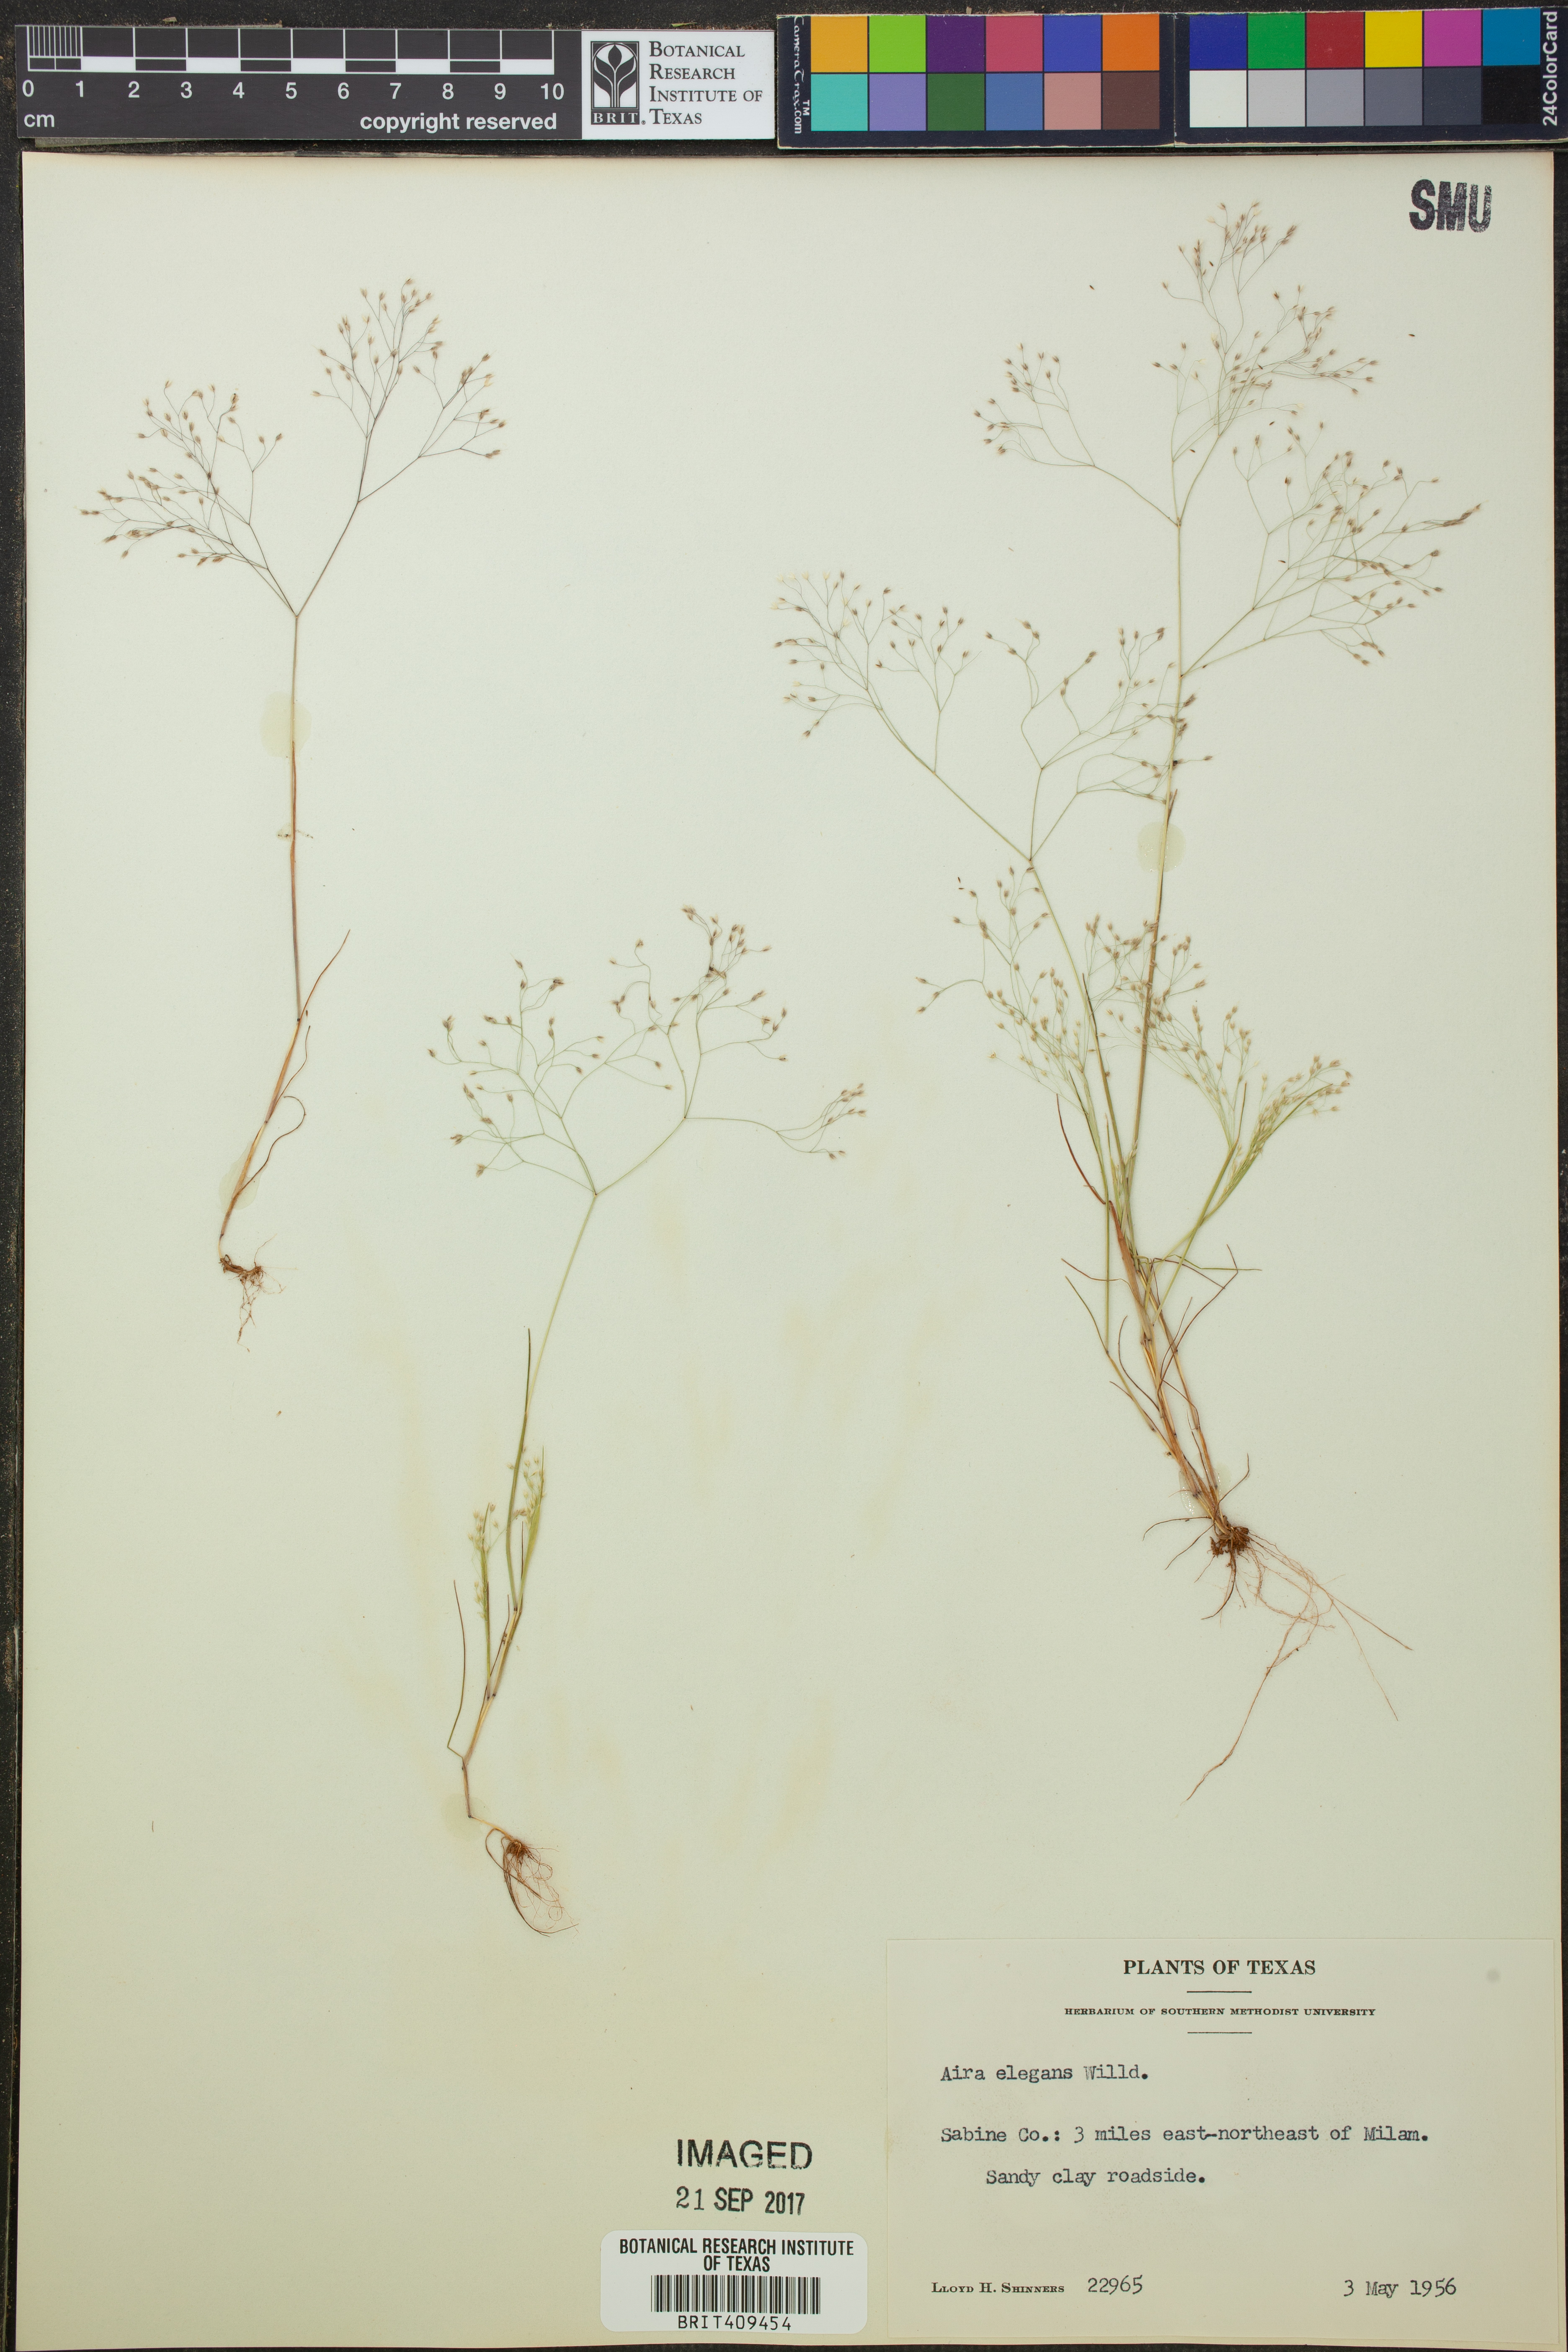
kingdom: Plantae
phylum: Tracheophyta
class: Liliopsida
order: Poales
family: Poaceae
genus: Aira
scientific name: Aira elegans
